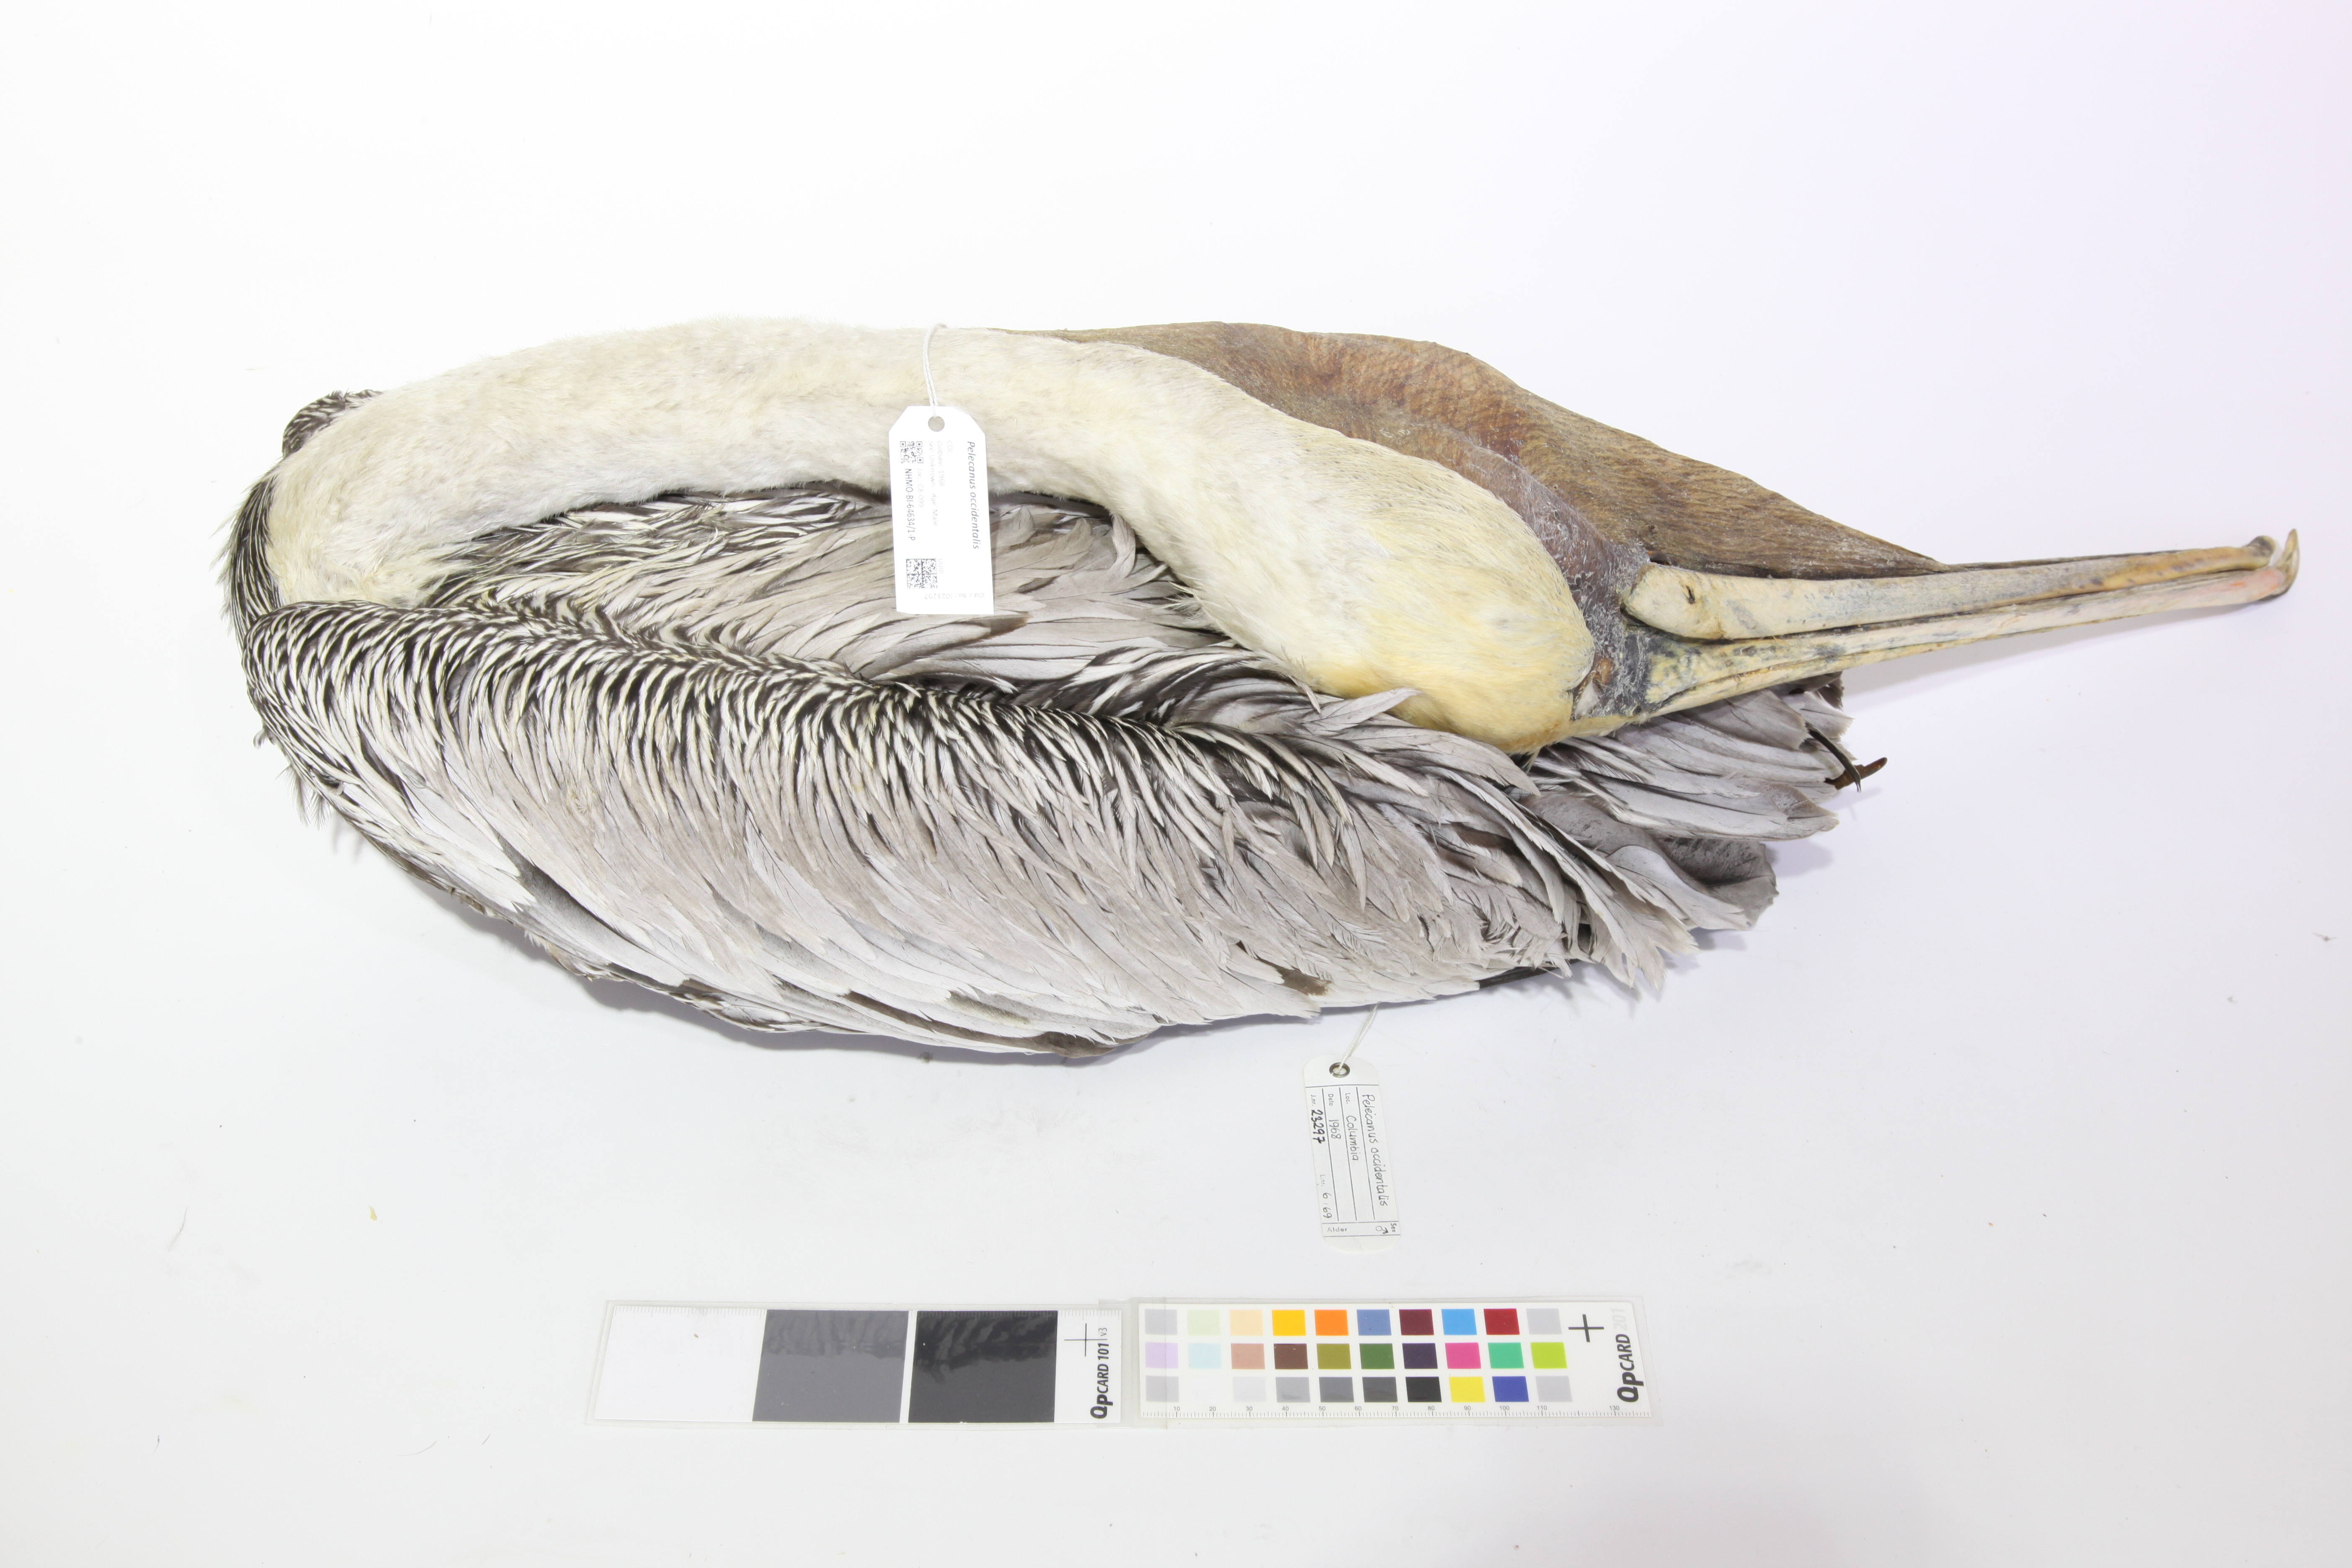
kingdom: Animalia
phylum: Chordata
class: Aves
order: Pelecaniformes
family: Pelecanidae
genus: Pelecanus
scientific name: Pelecanus occidentalis
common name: Brown pelican
